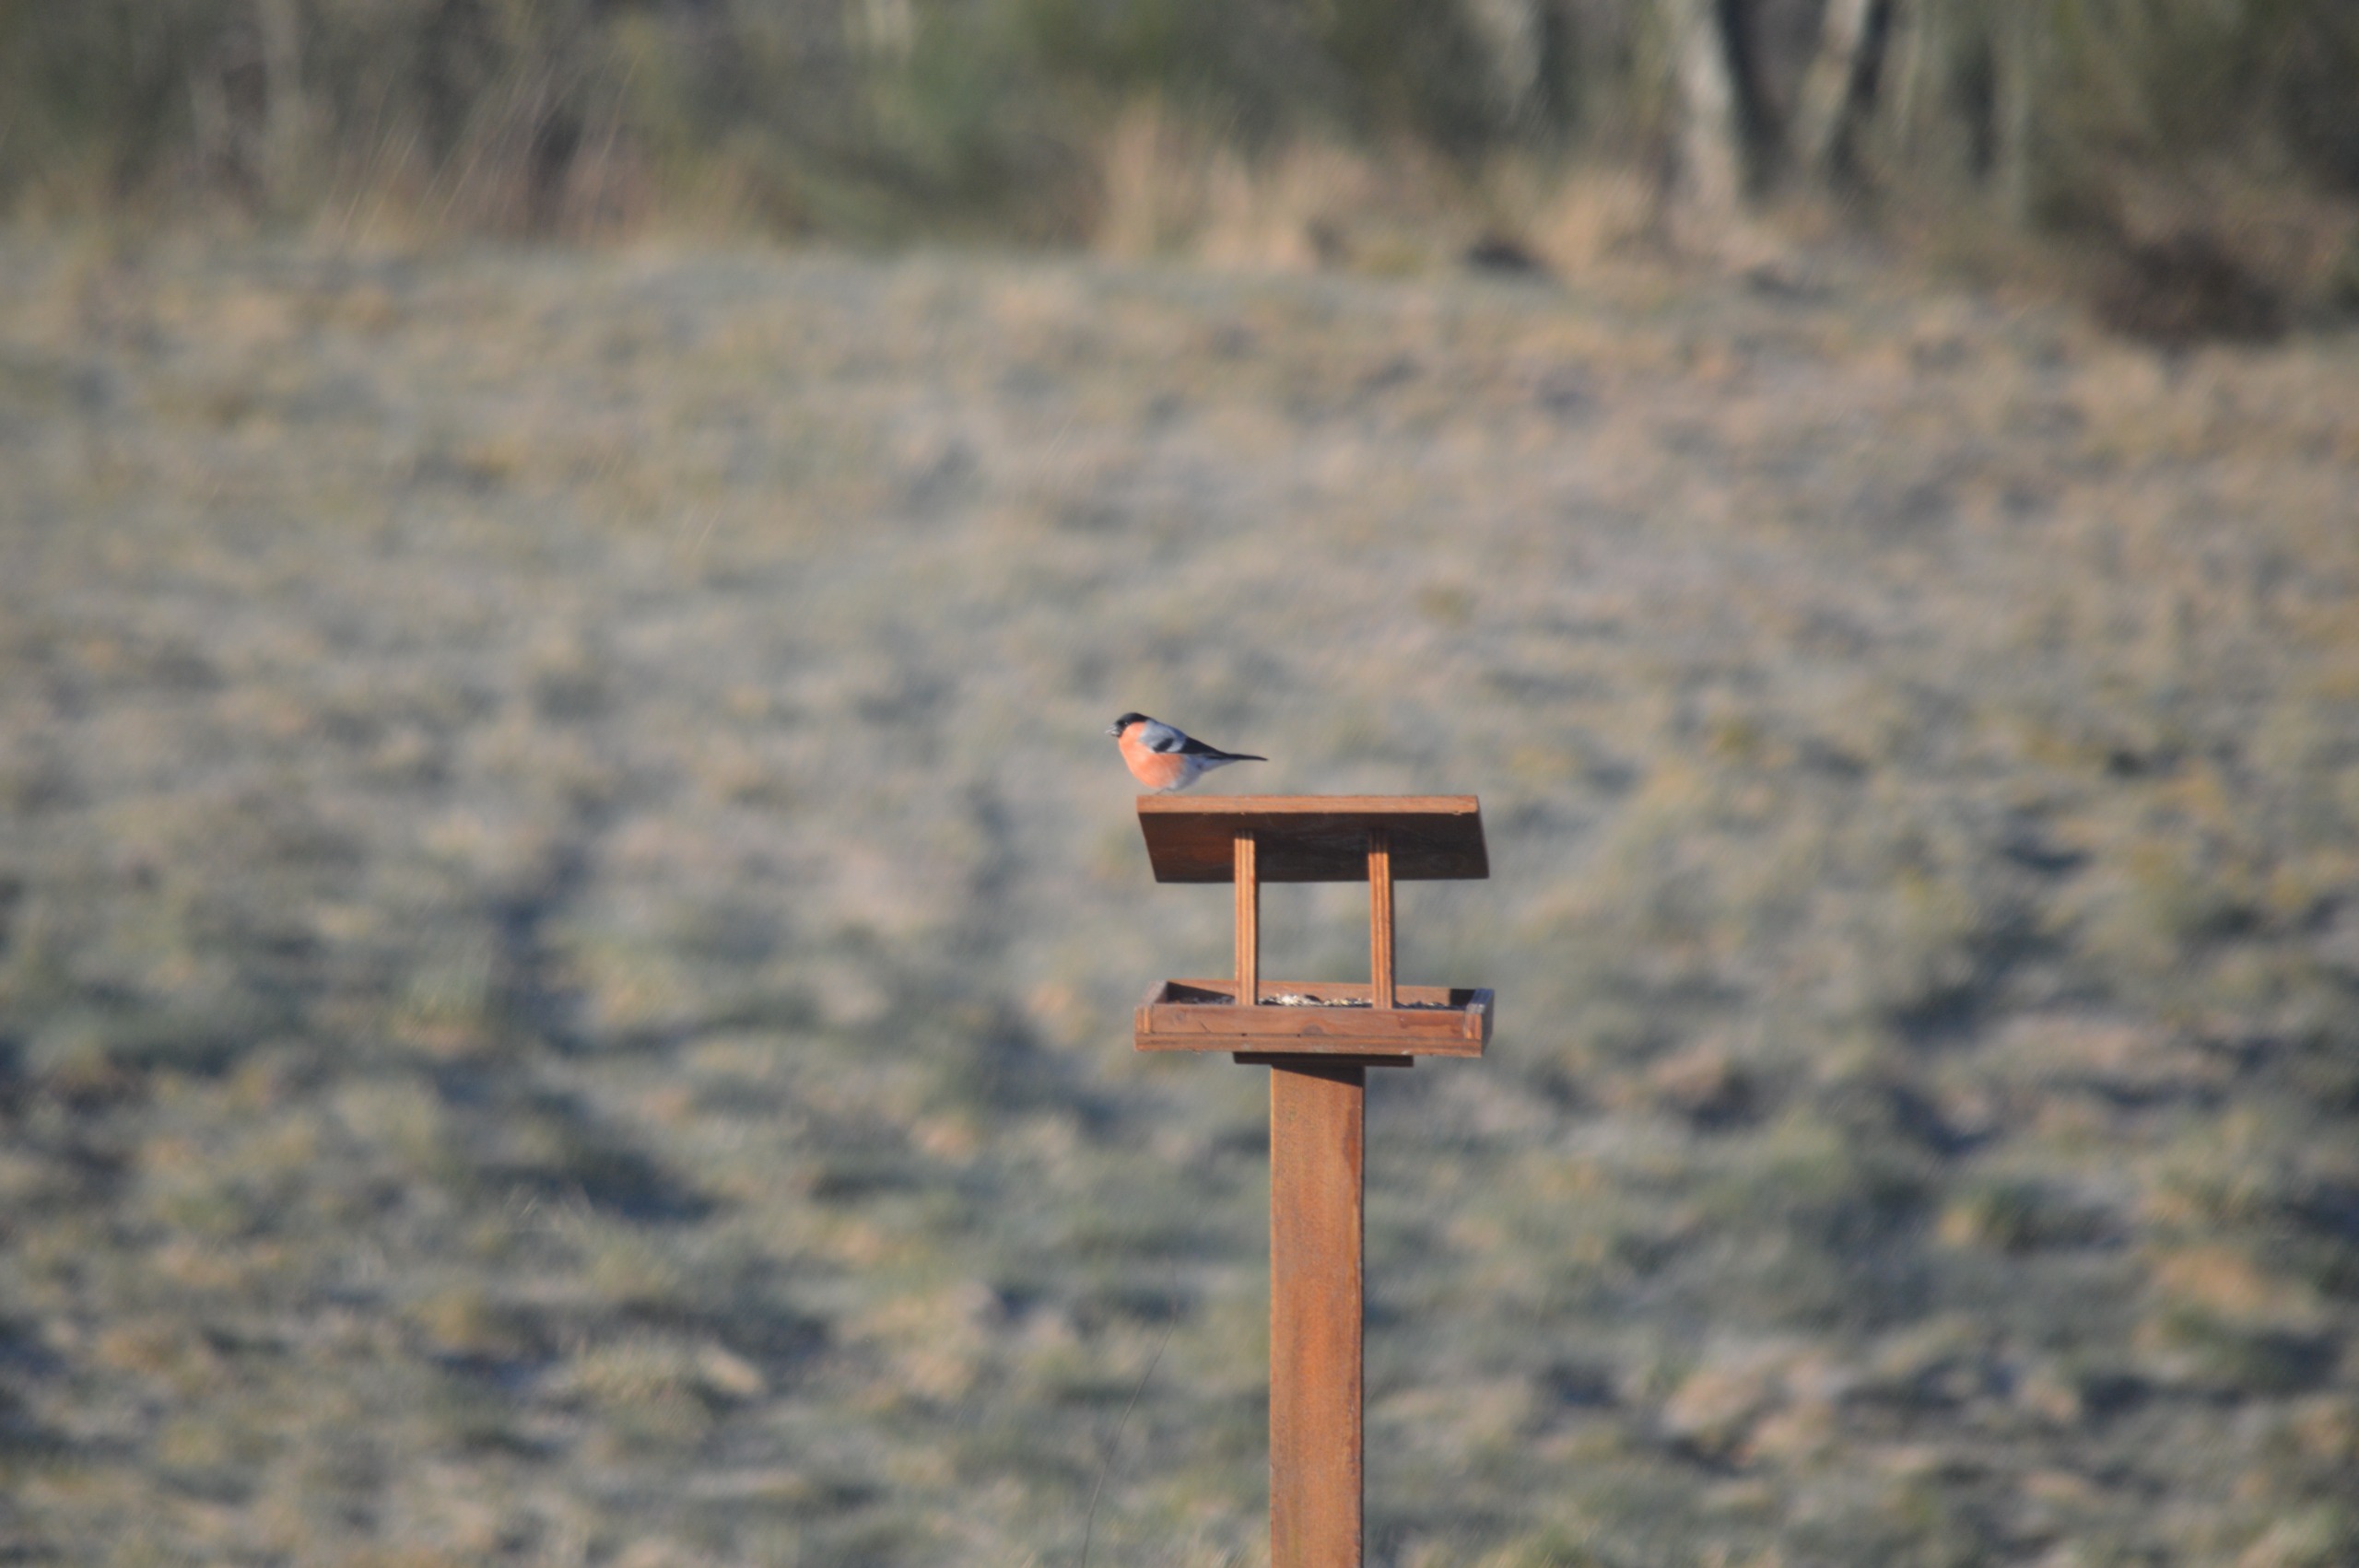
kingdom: Animalia
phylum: Chordata
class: Aves
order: Passeriformes
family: Fringillidae
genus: Pyrrhula
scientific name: Pyrrhula pyrrhula
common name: Dompap
